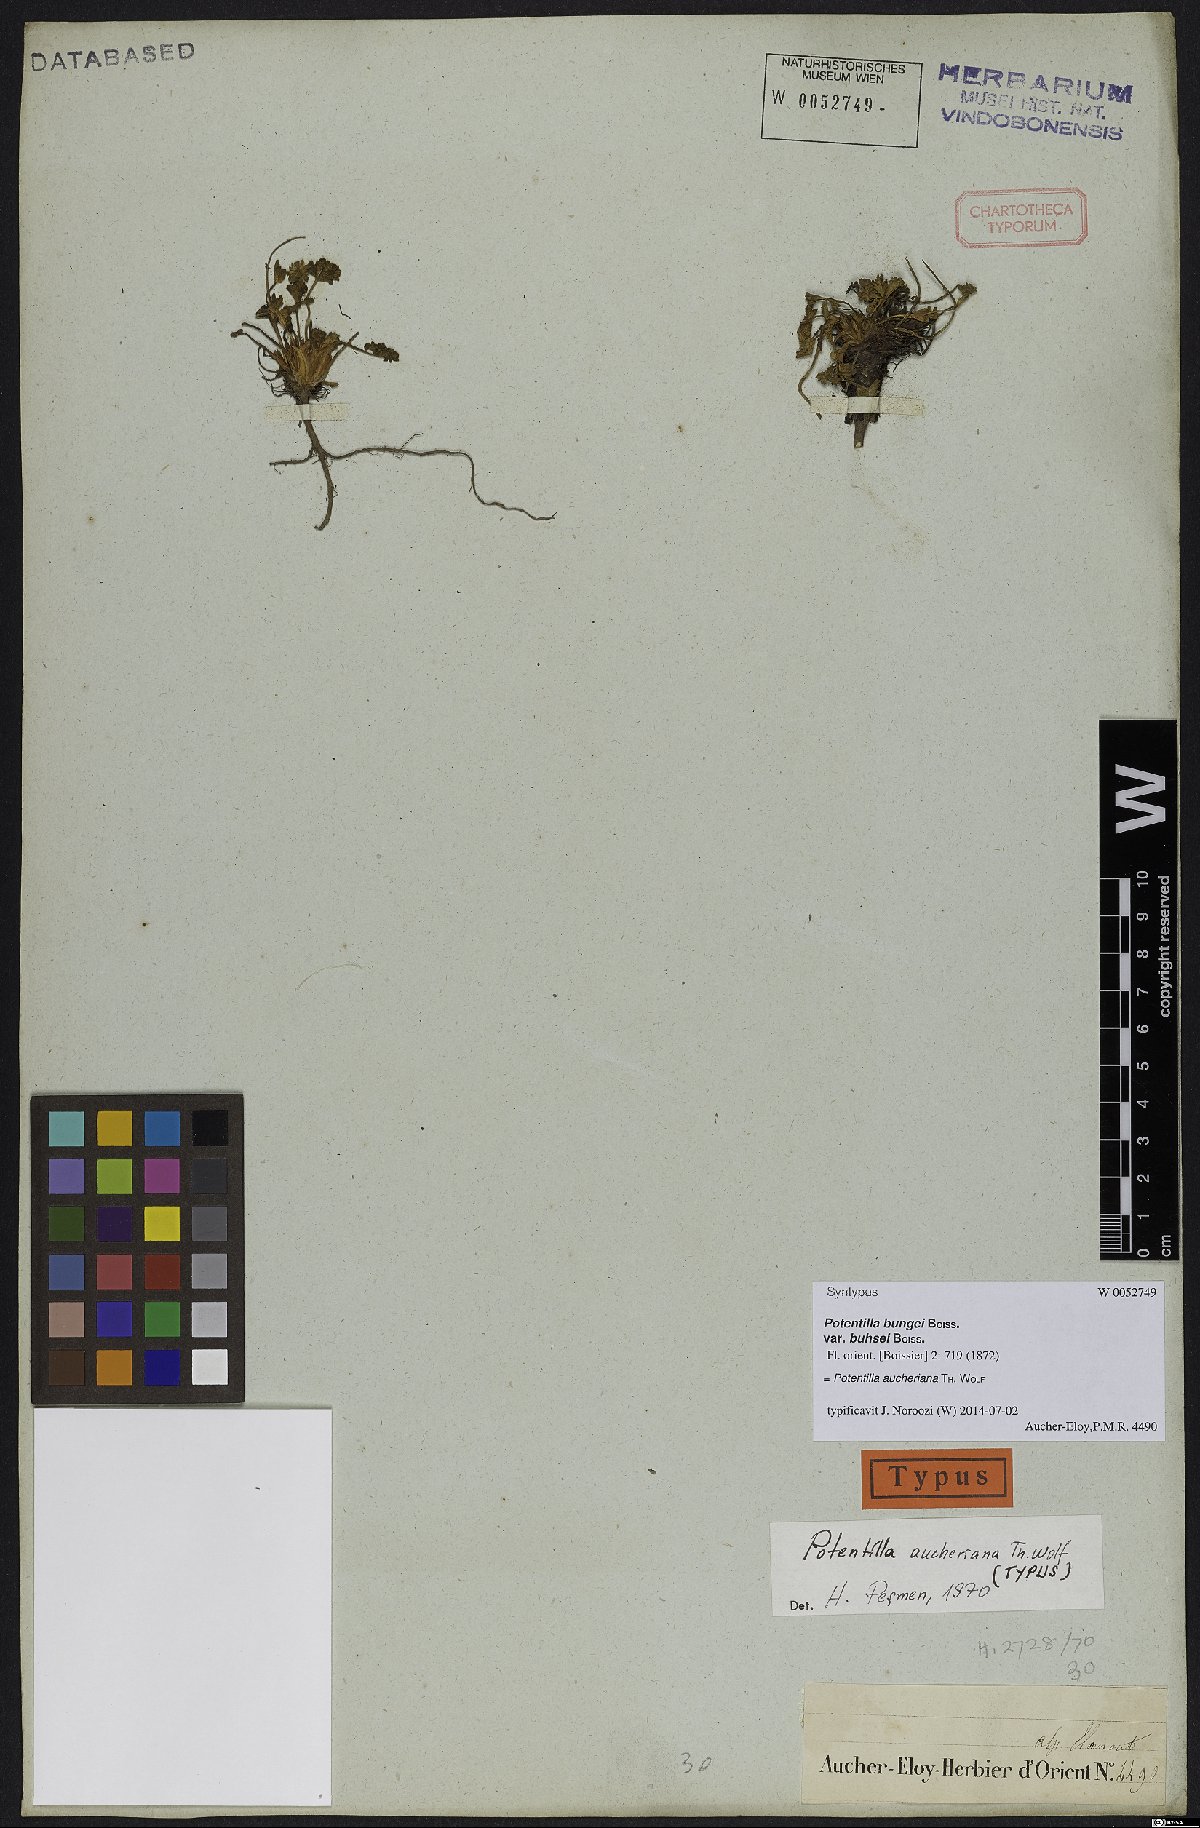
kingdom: Plantae
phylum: Tracheophyta
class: Magnoliopsida
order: Rosales
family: Rosaceae
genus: Potentilla
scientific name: Potentilla aucheriana
